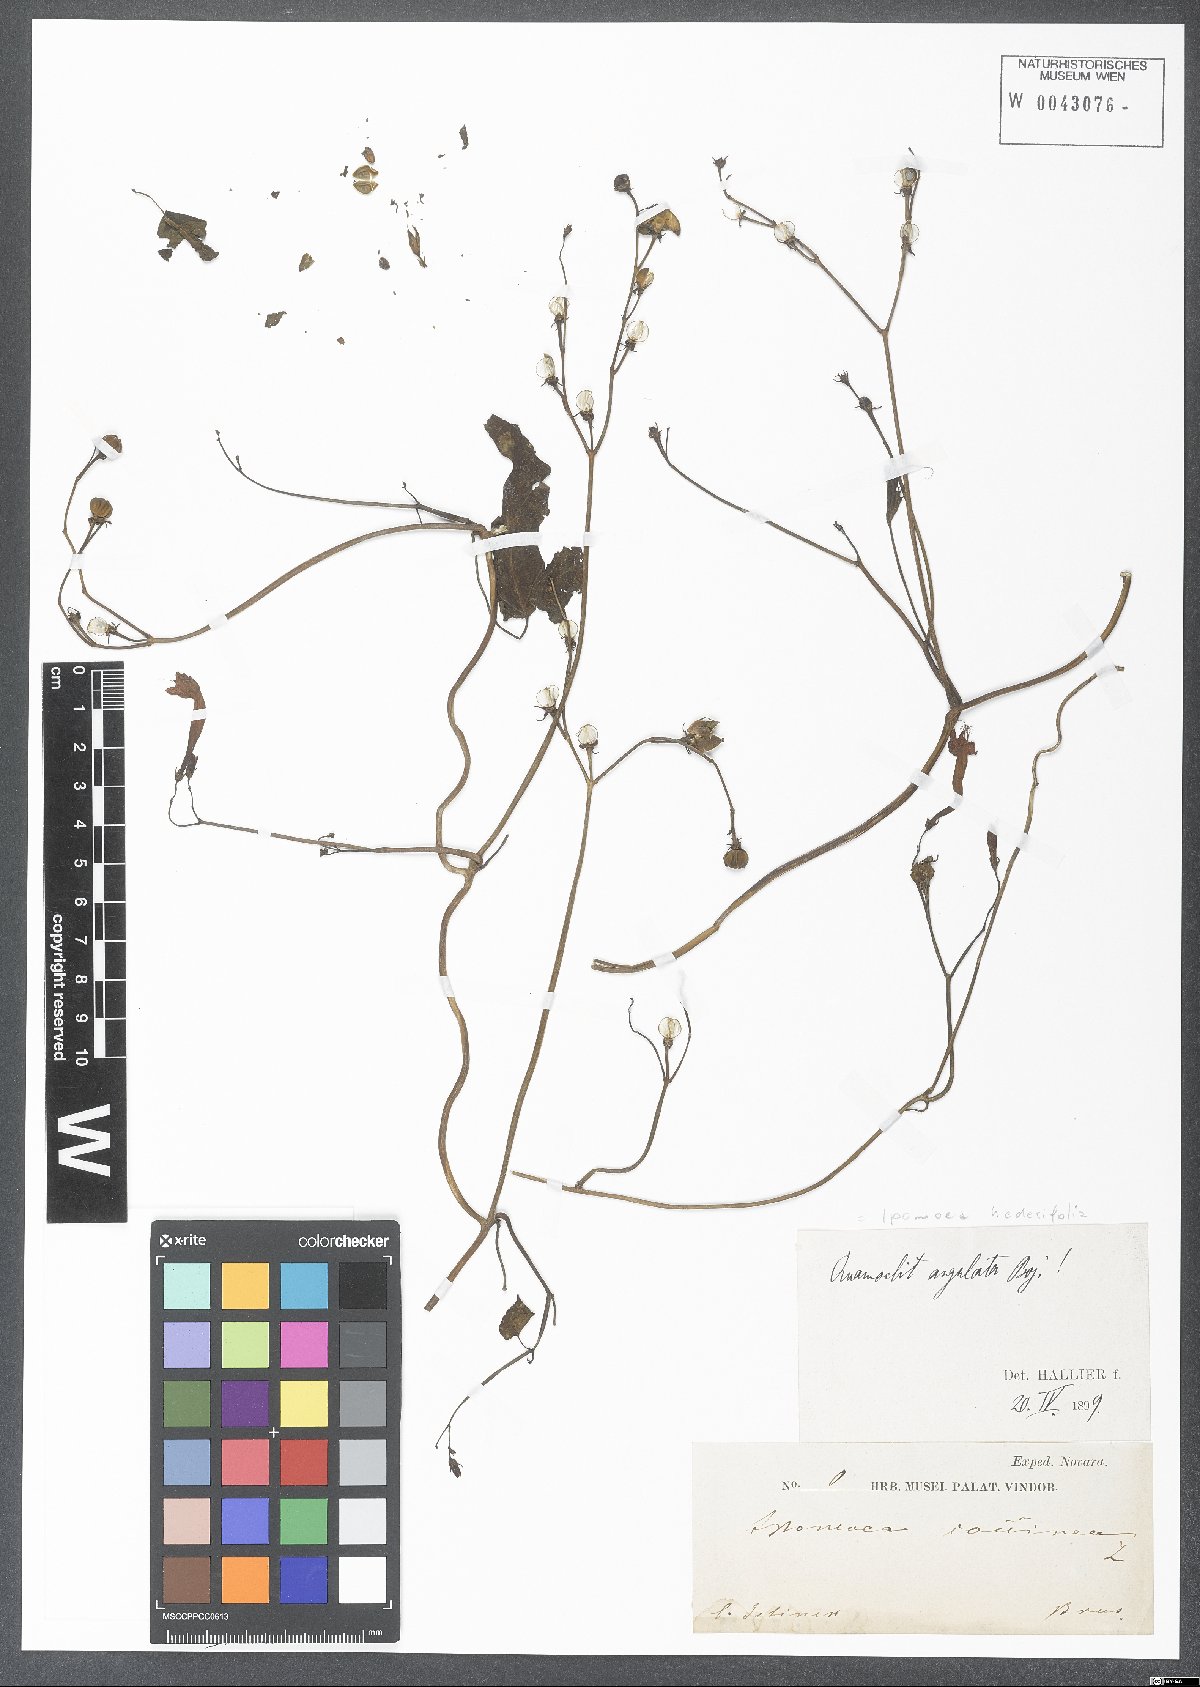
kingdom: Plantae
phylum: Tracheophyta
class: Magnoliopsida
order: Solanales
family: Convolvulaceae
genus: Ipomoea
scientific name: Ipomoea hederifolia
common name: Ivy-leaf morning-glory
